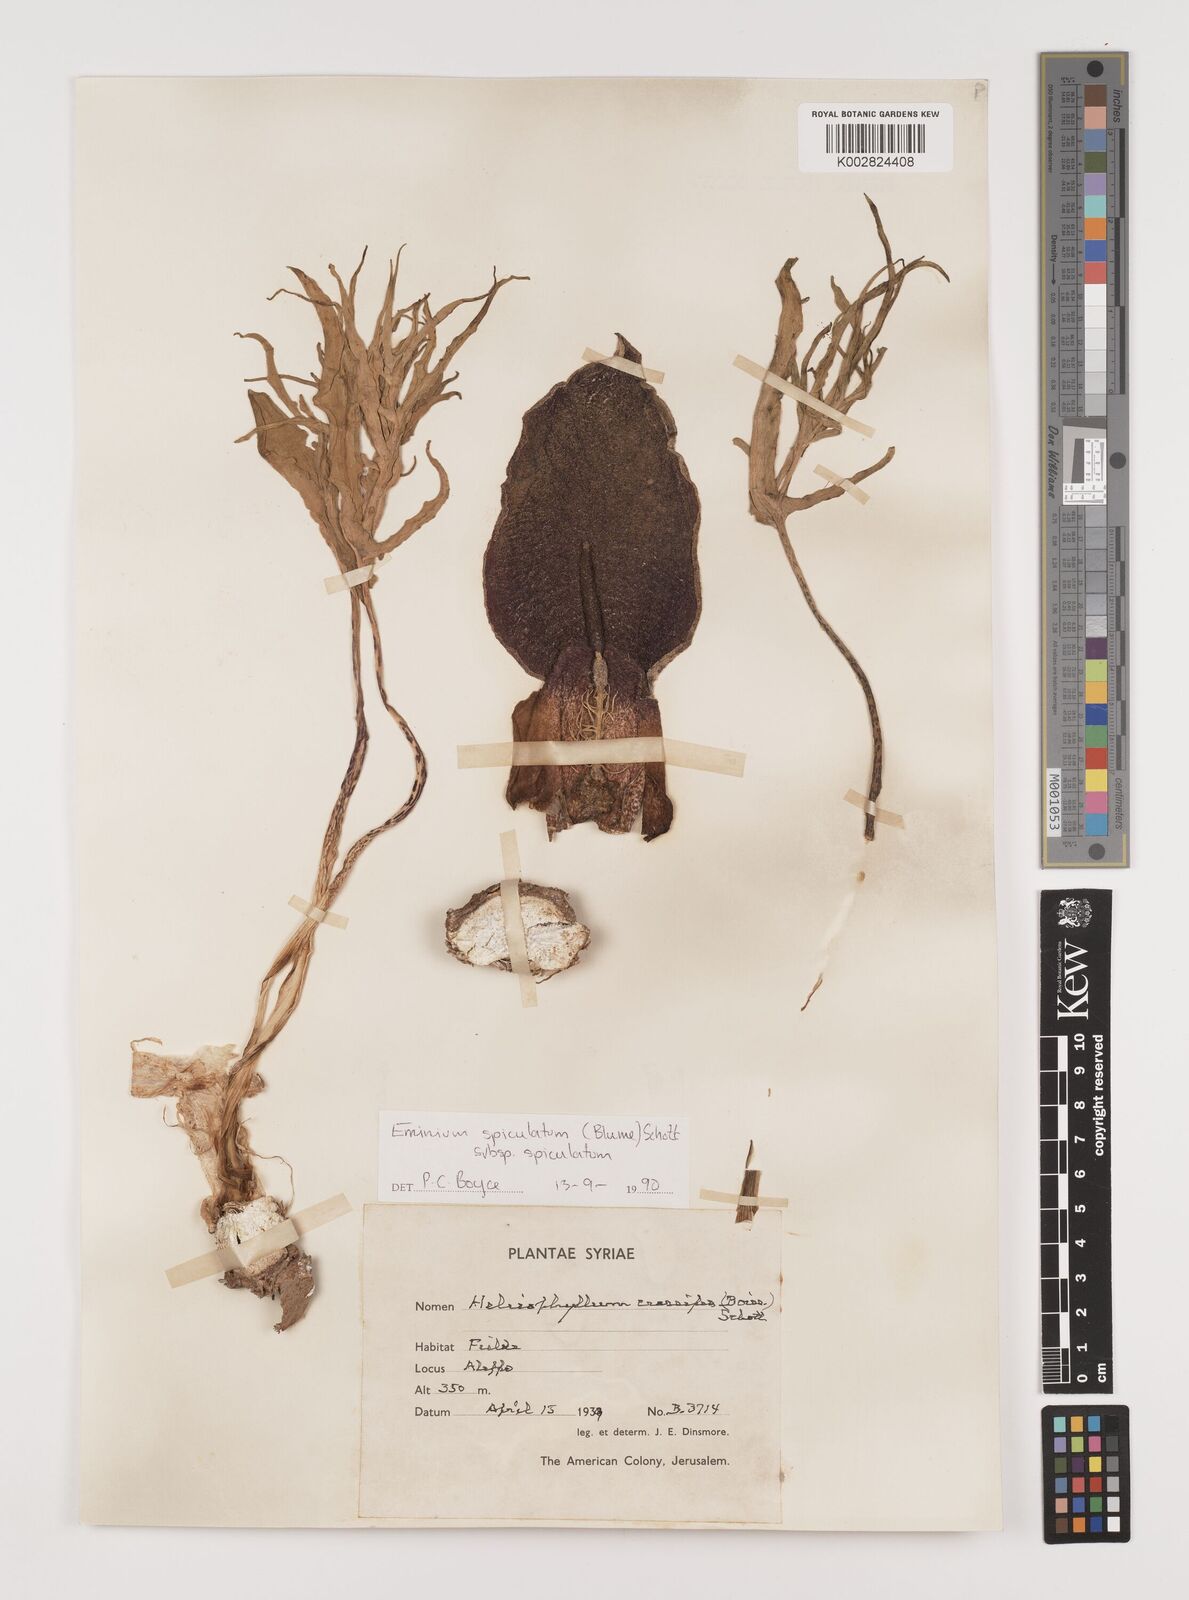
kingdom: Plantae
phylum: Tracheophyta
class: Liliopsida
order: Alismatales
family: Araceae
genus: Eminium
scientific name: Eminium spiculatum
